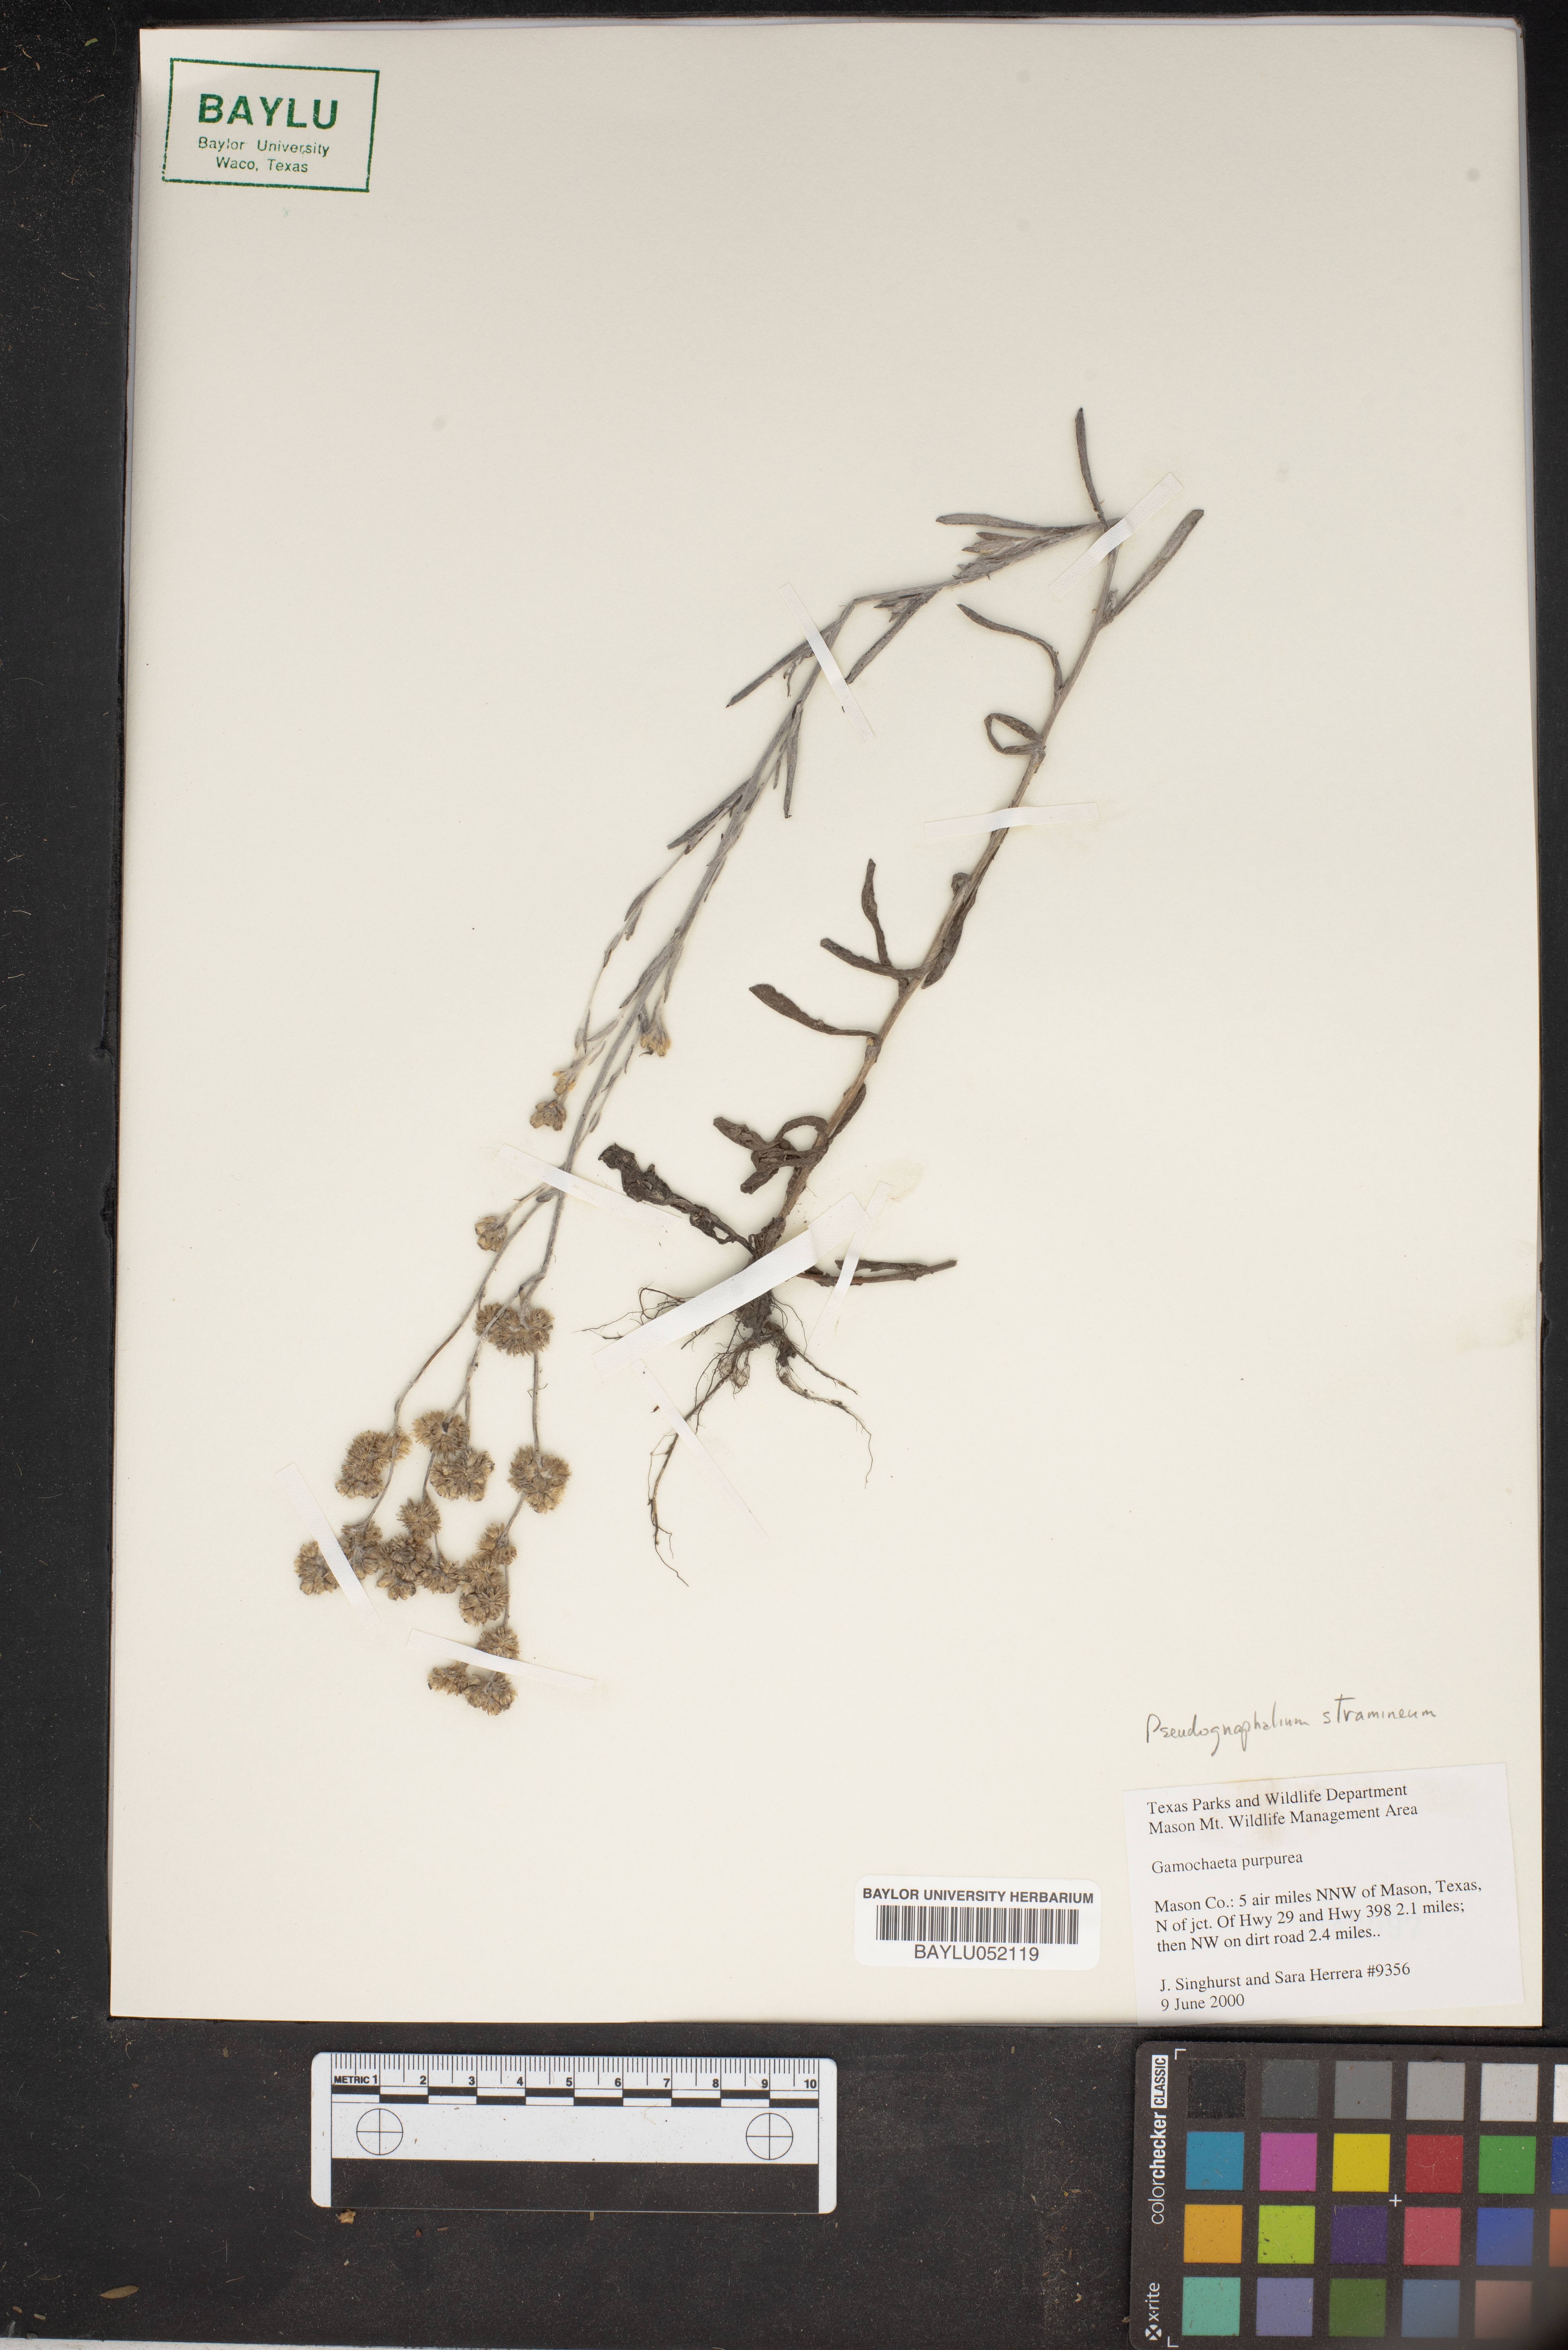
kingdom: Plantae
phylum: Tracheophyta
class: Magnoliopsida
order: Asterales
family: Asteraceae
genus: Gamochaeta
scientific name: Gamochaeta purpurea
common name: Purple cudweed
